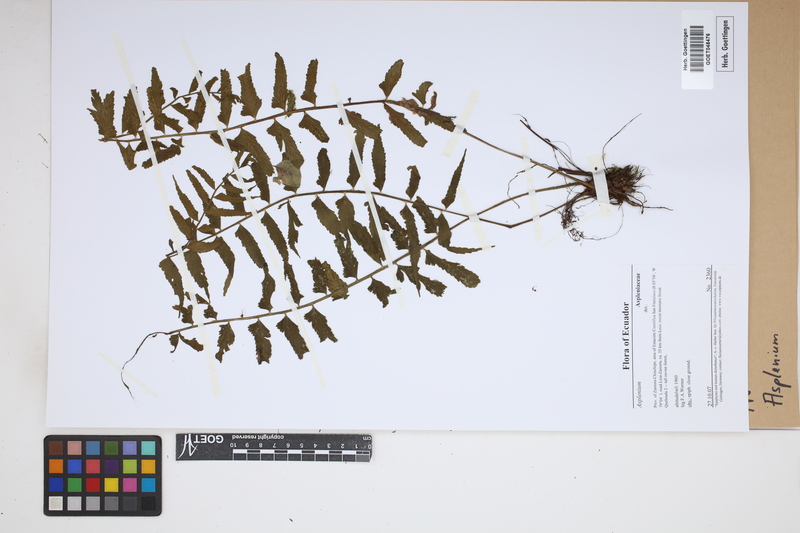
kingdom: Plantae
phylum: Tracheophyta
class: Polypodiopsida
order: Polypodiales
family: Aspleniaceae
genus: Asplenium
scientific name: Asplenium
